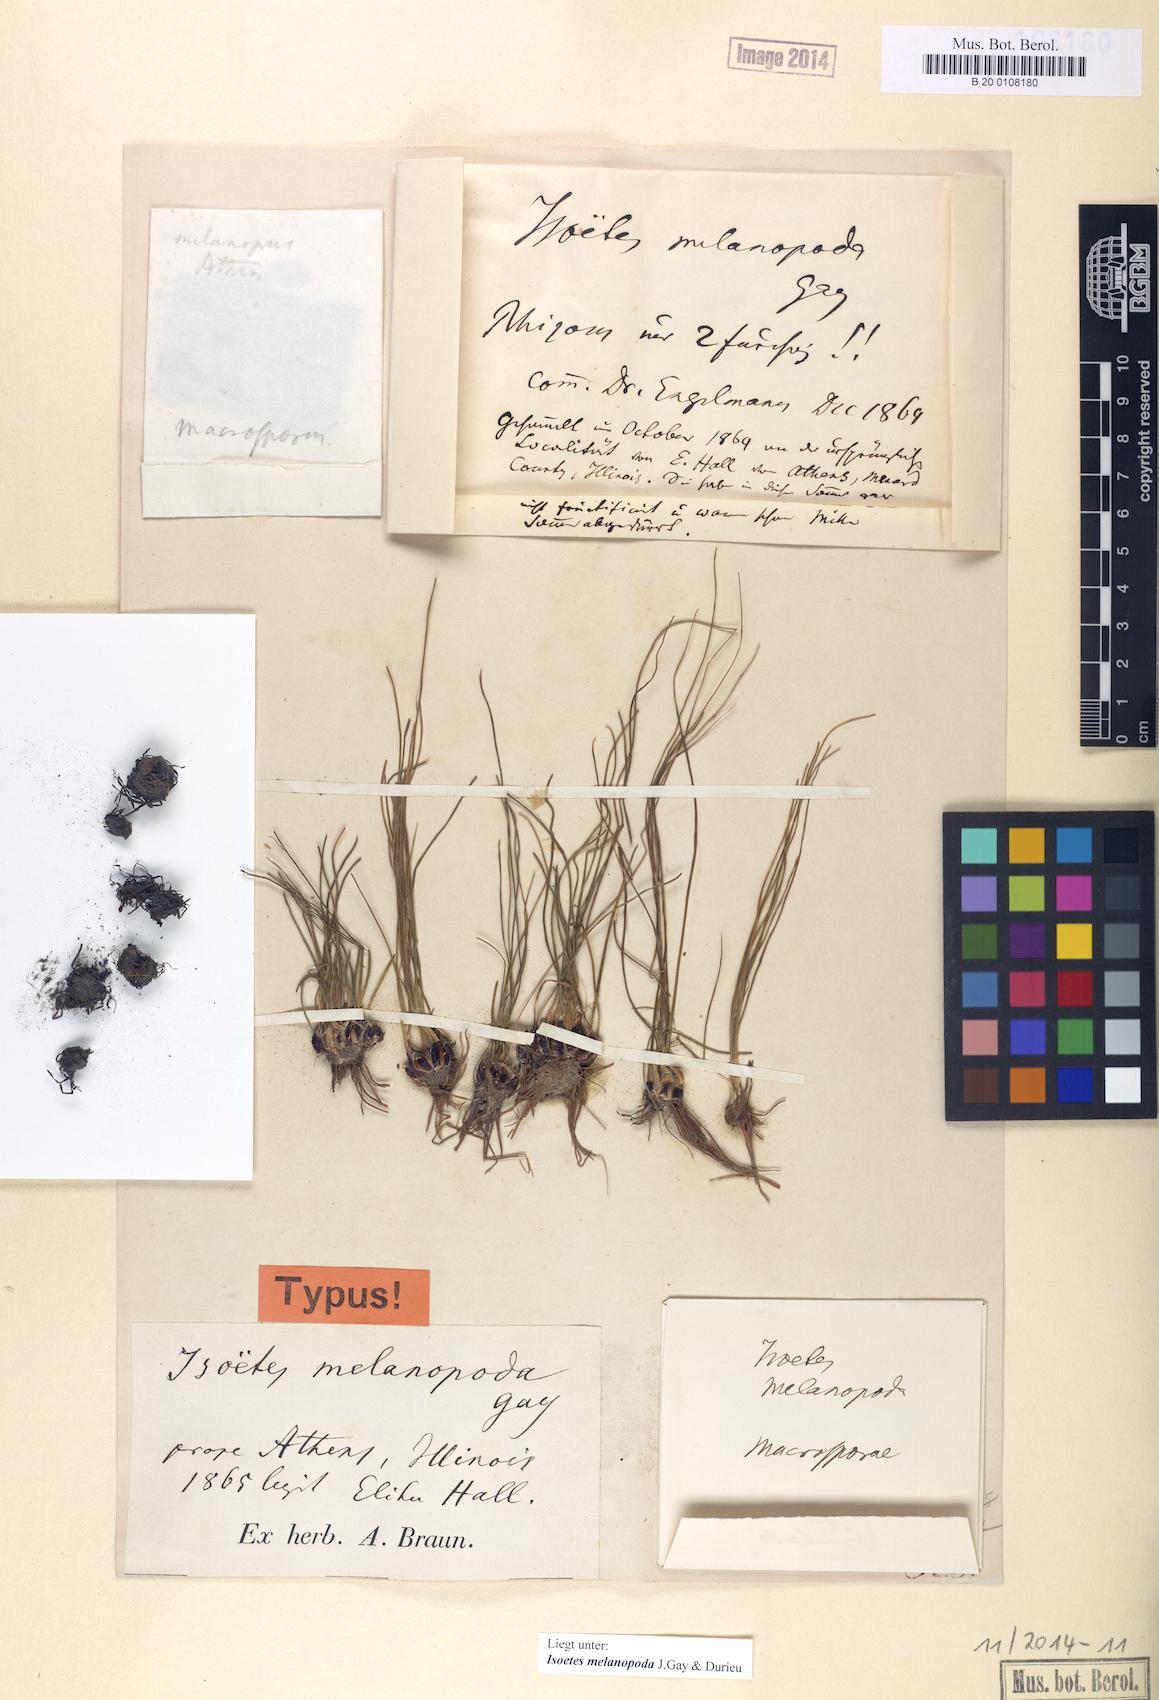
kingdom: Plantae
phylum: Tracheophyta
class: Lycopodiopsida
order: Isoetales
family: Isoetaceae
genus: Isoetes
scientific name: Isoetes melanopoda
